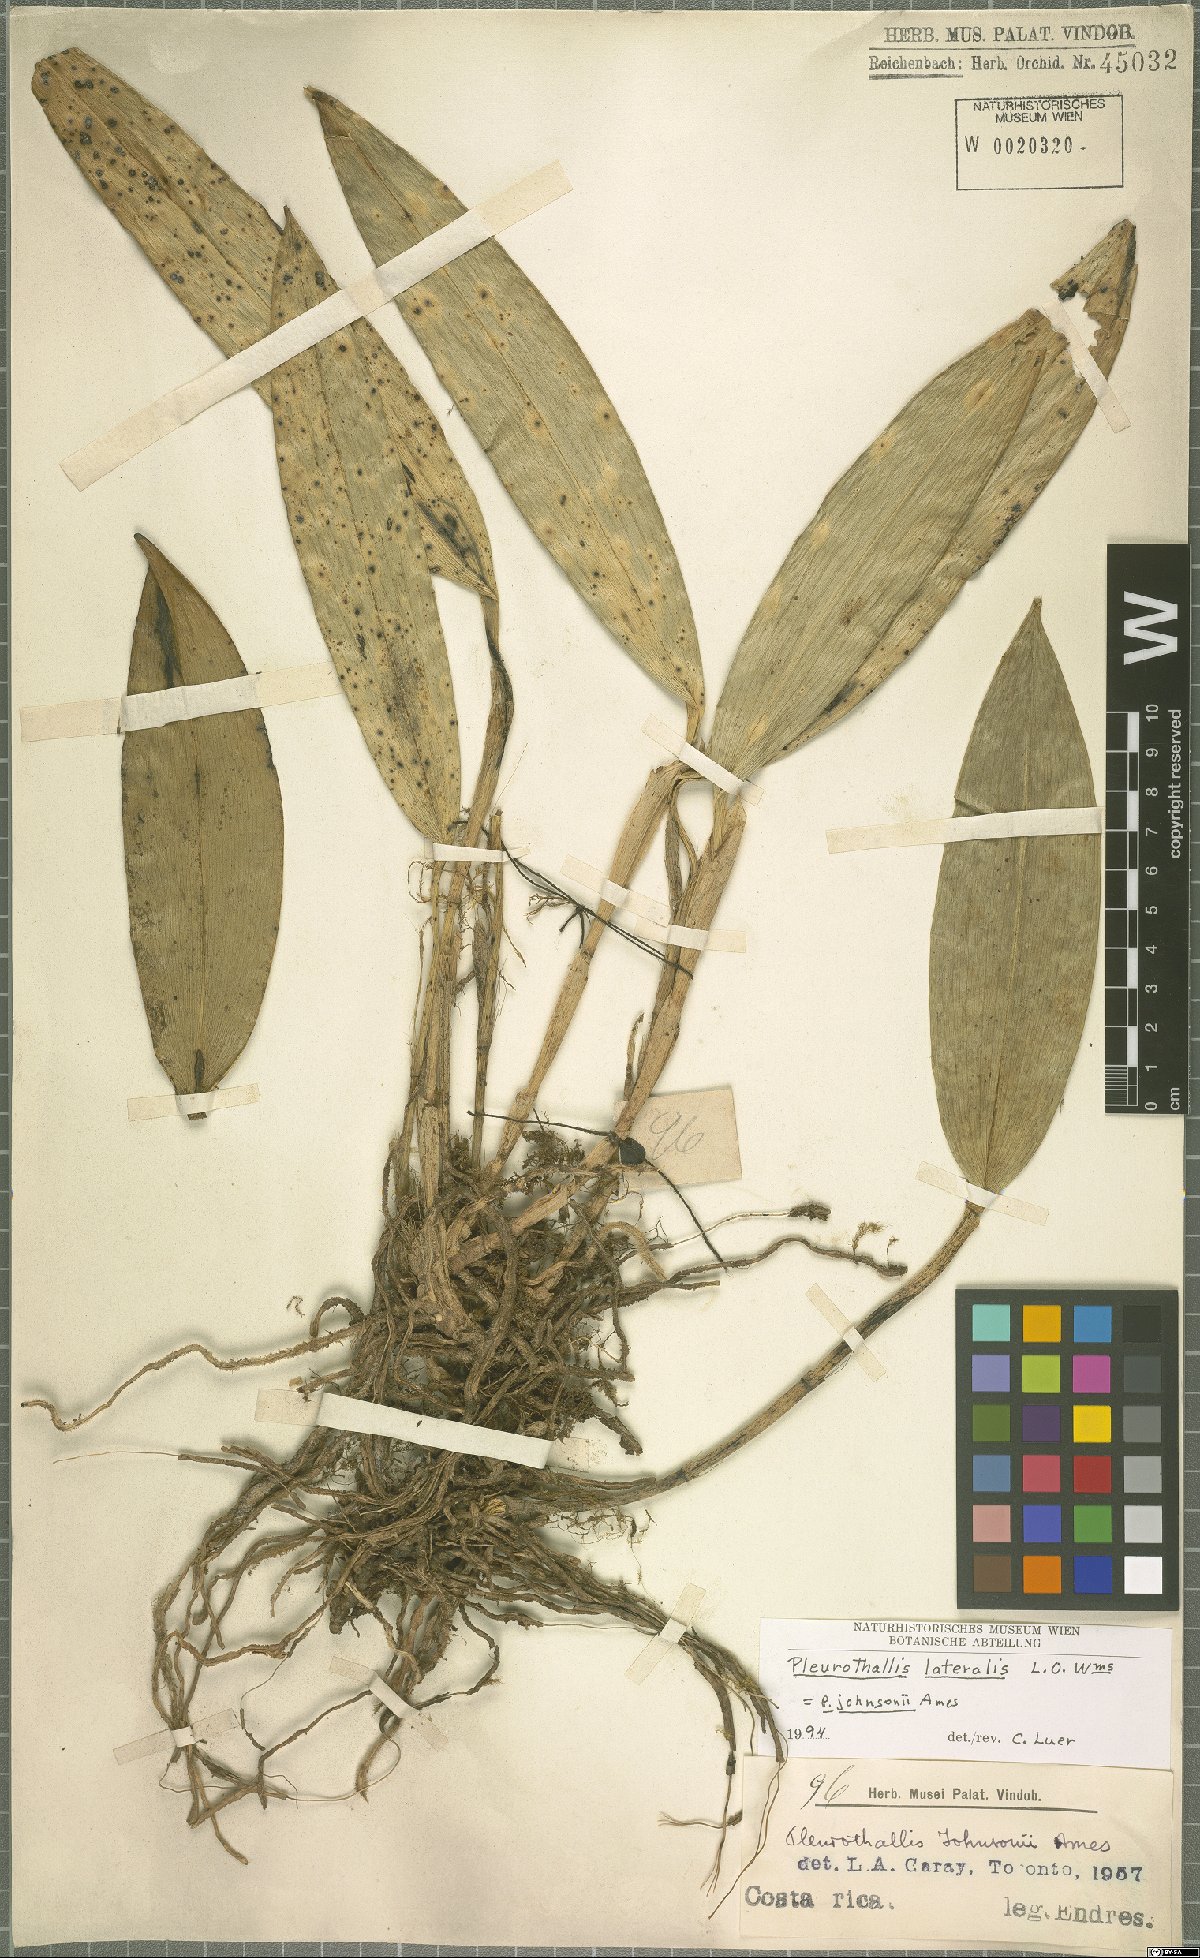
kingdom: Plantae
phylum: Tracheophyta
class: Liliopsida
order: Asparagales
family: Orchidaceae
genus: Acianthera
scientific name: Acianthera johnsonii
